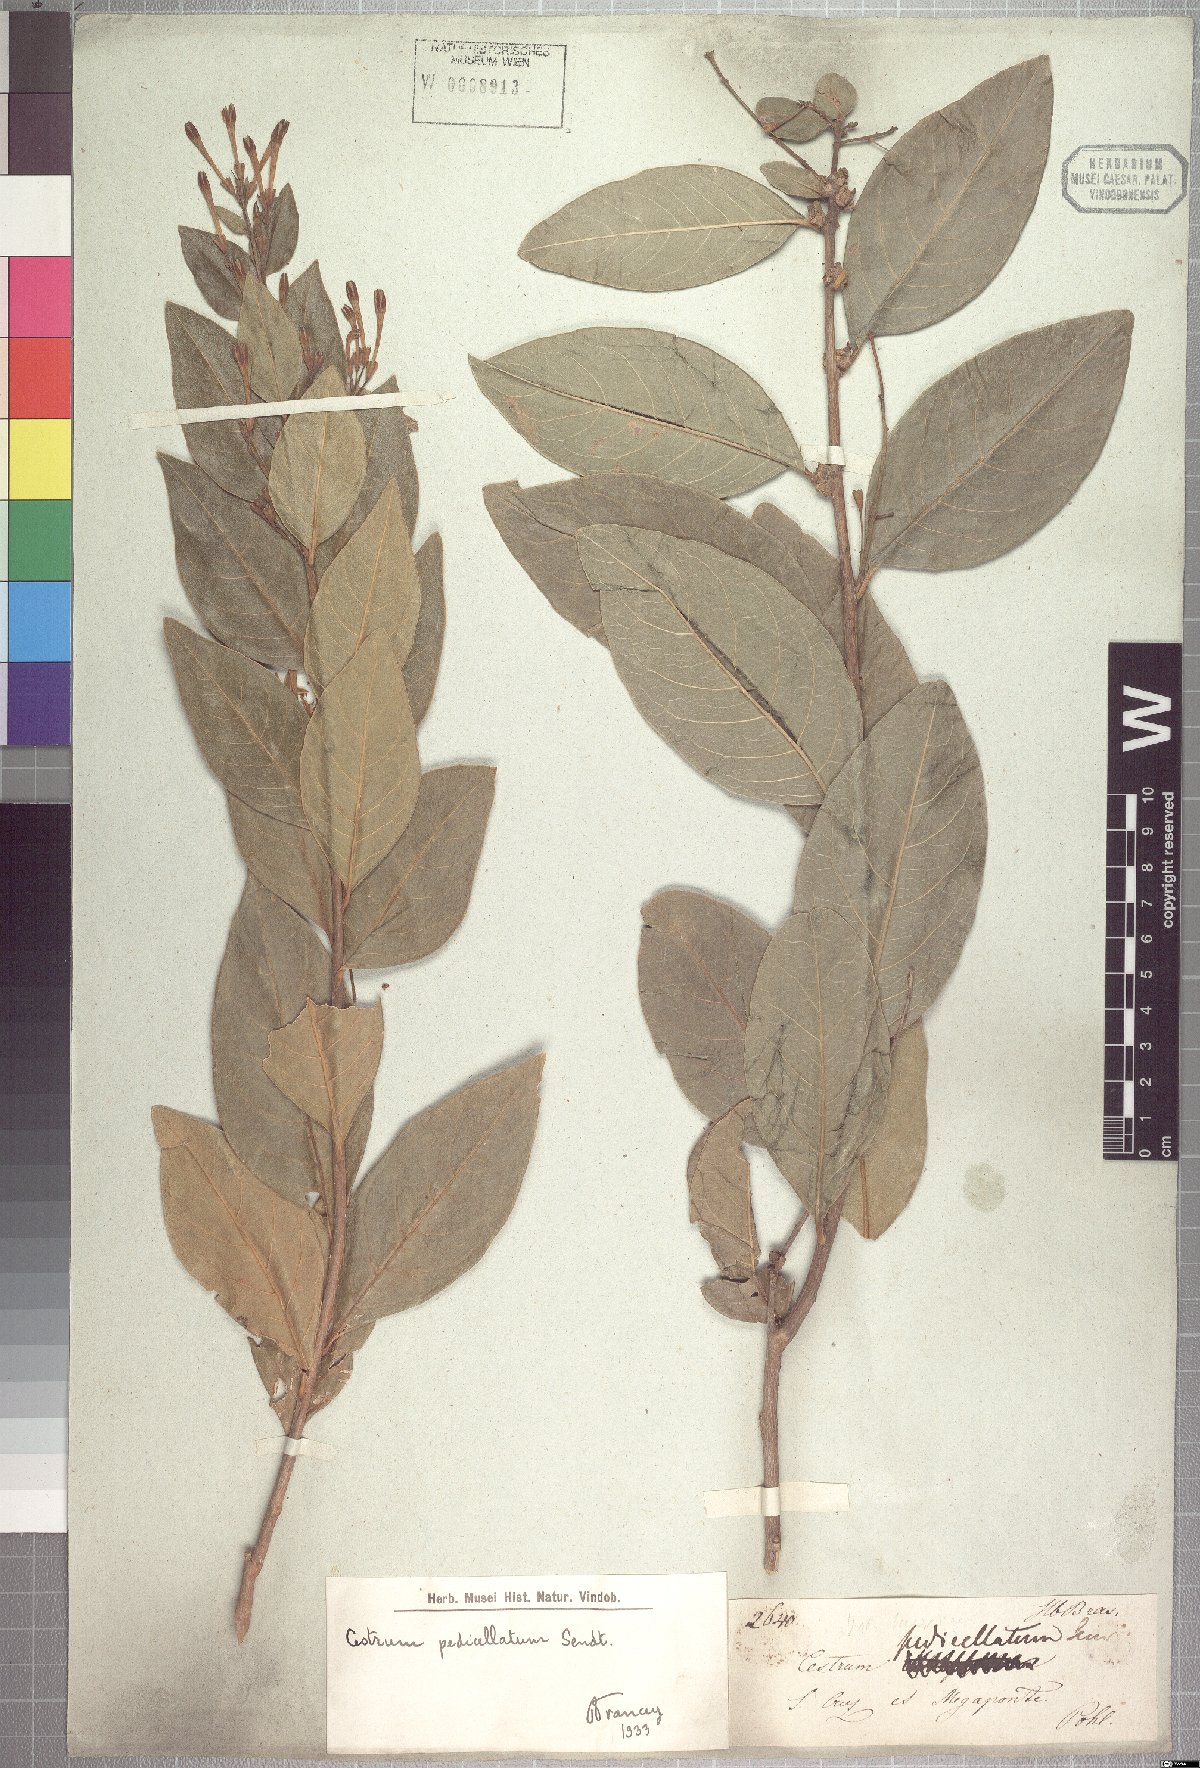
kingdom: Plantae
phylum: Tracheophyta
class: Magnoliopsida
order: Solanales
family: Solanaceae
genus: Cestrum
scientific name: Cestrum pedicellatum
